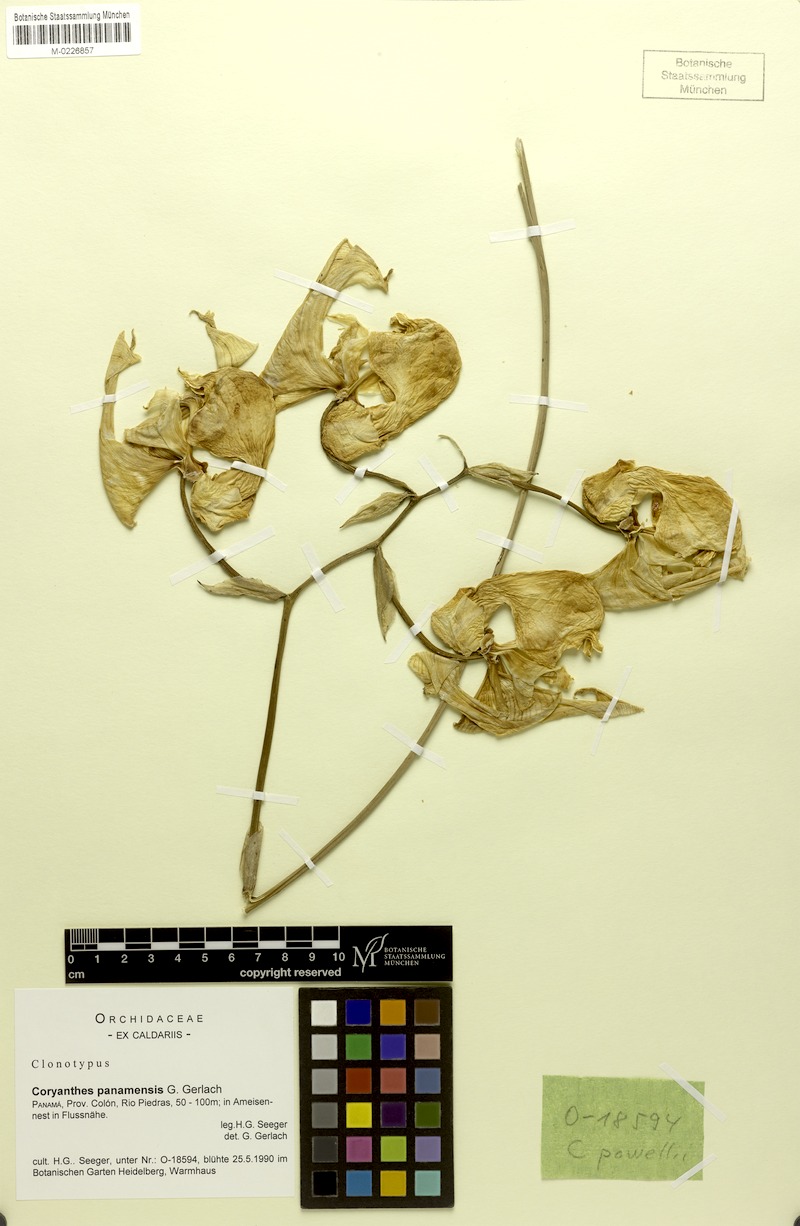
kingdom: Plantae
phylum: Tracheophyta
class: Liliopsida
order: Asparagales
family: Orchidaceae
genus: Coryanthes
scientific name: Coryanthes panamensis
